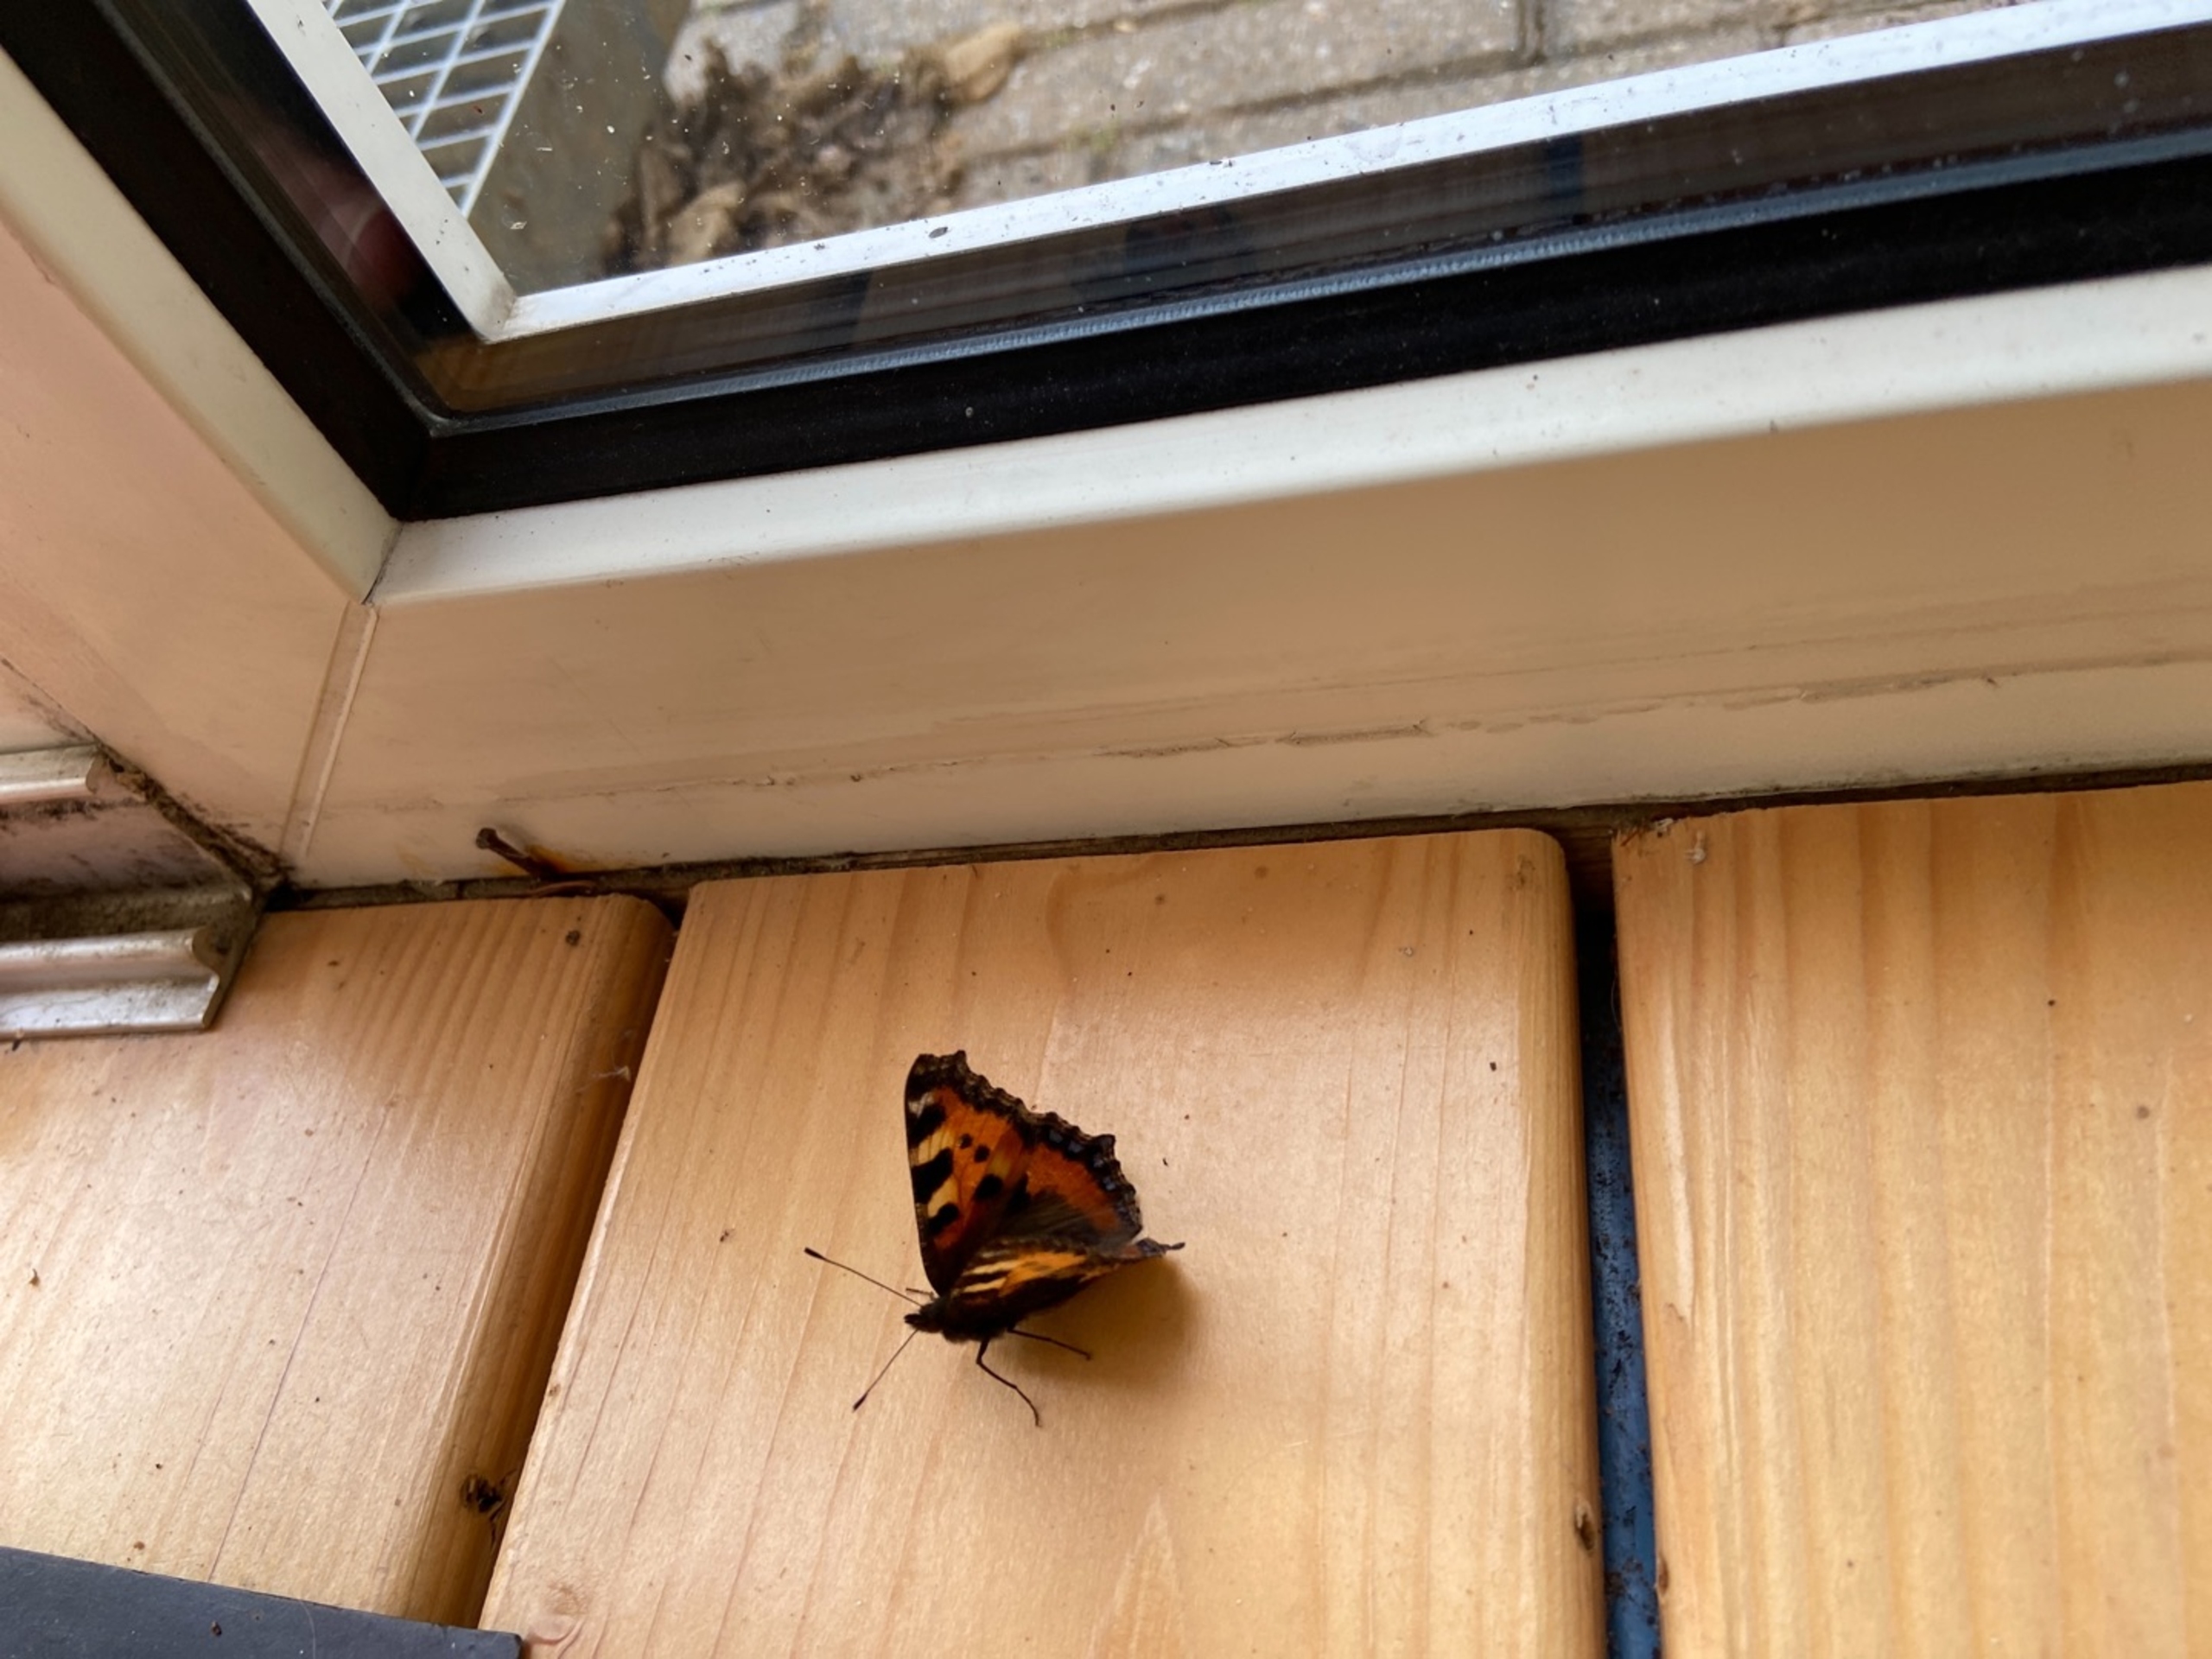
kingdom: Animalia
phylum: Arthropoda
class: Insecta
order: Lepidoptera
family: Nymphalidae
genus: Aglais
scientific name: Aglais urticae
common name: Nældens takvinge
